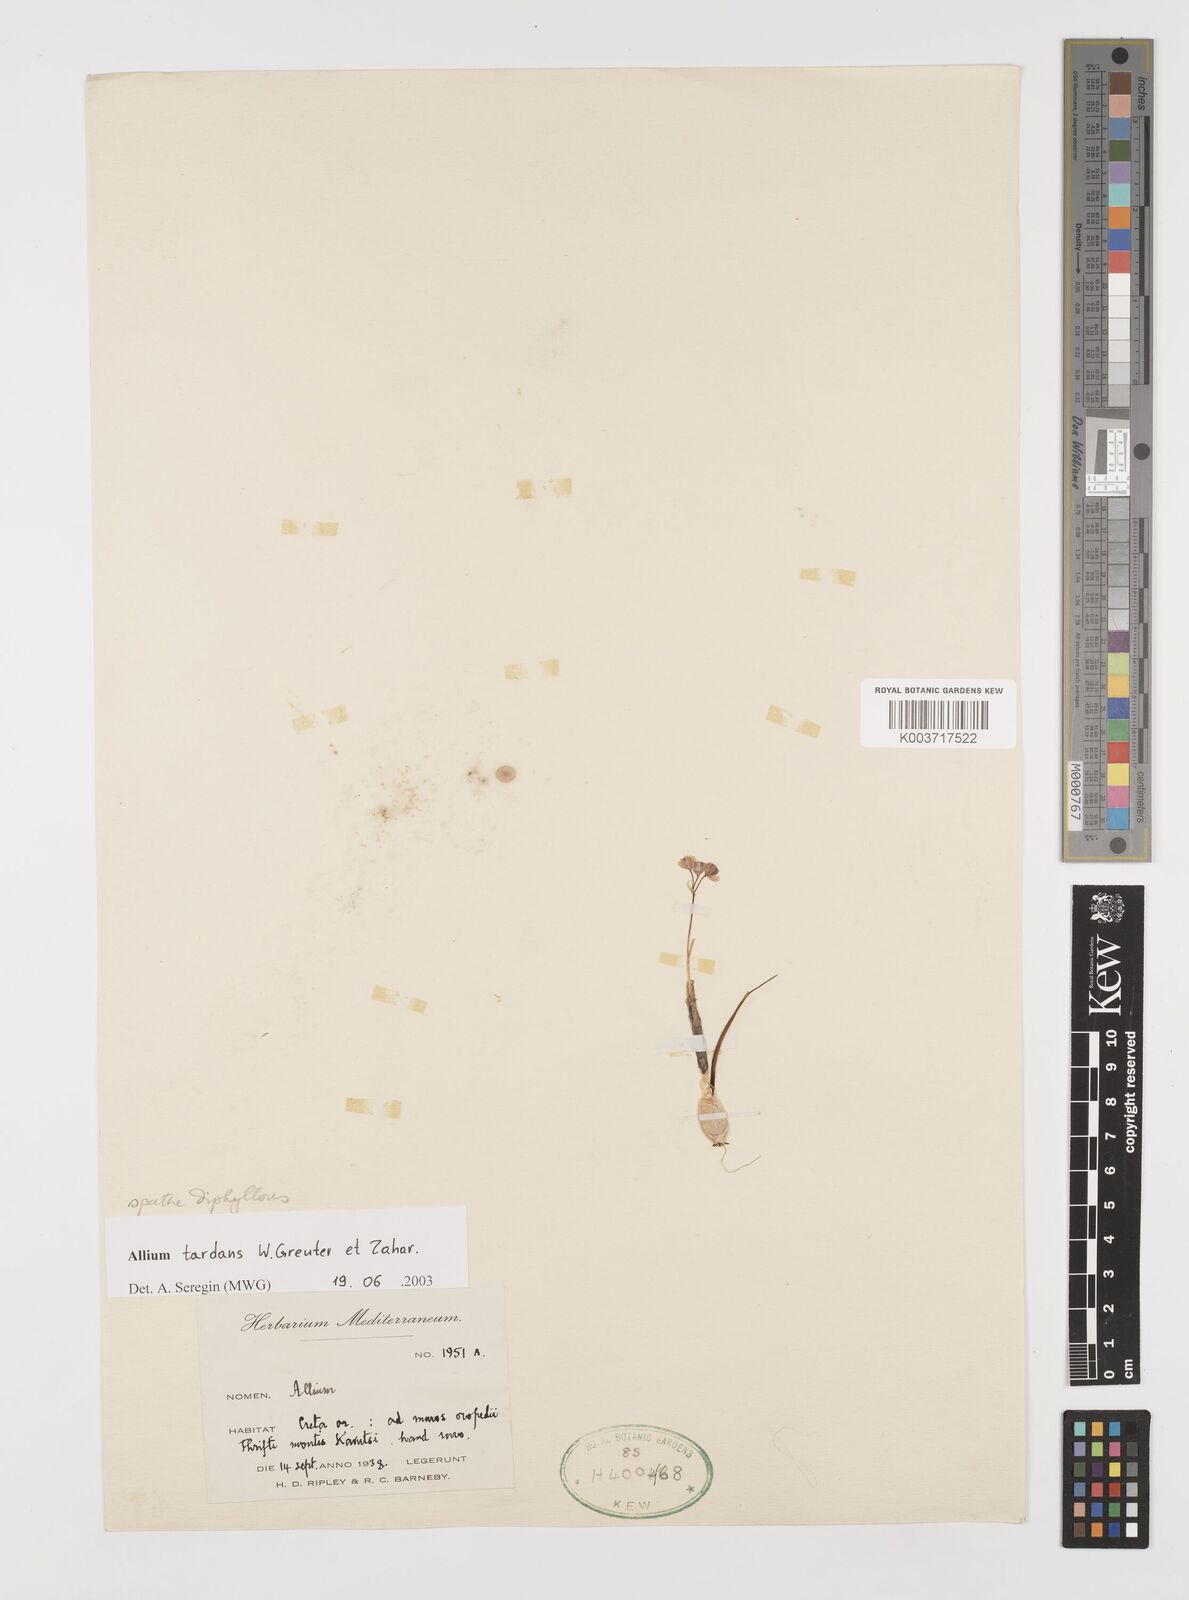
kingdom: Plantae
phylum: Tracheophyta
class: Liliopsida
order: Asparagales
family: Amaryllidaceae
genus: Allium
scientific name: Allium tardans
